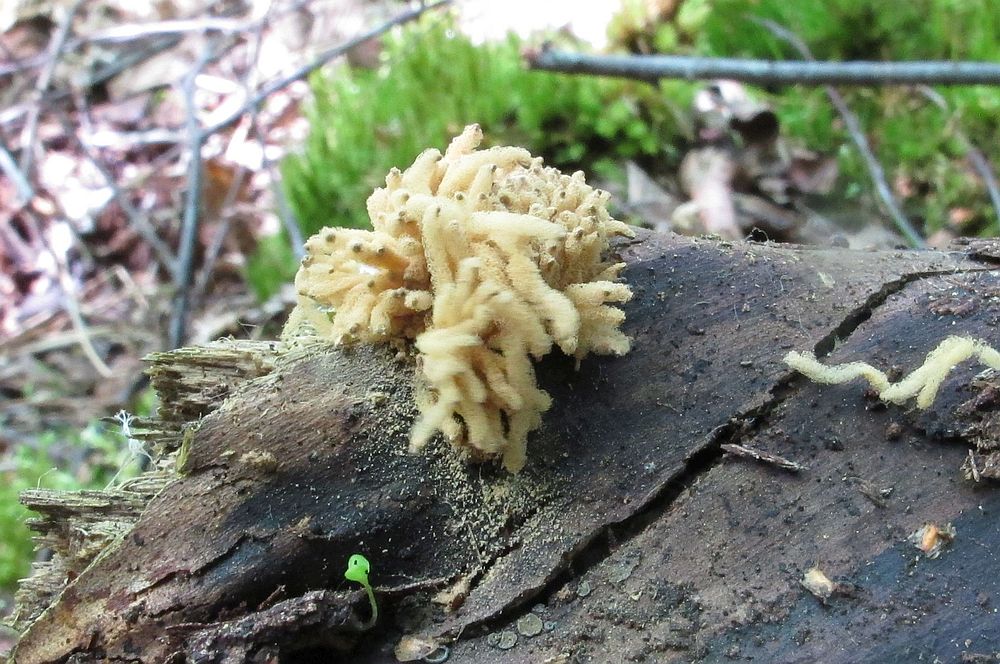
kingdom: Protozoa
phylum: Mycetozoa
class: Myxomycetes
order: Trichiales
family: Arcyriaceae
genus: Arcyria
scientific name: Arcyria obvelata
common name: okkergul skålsvøb
